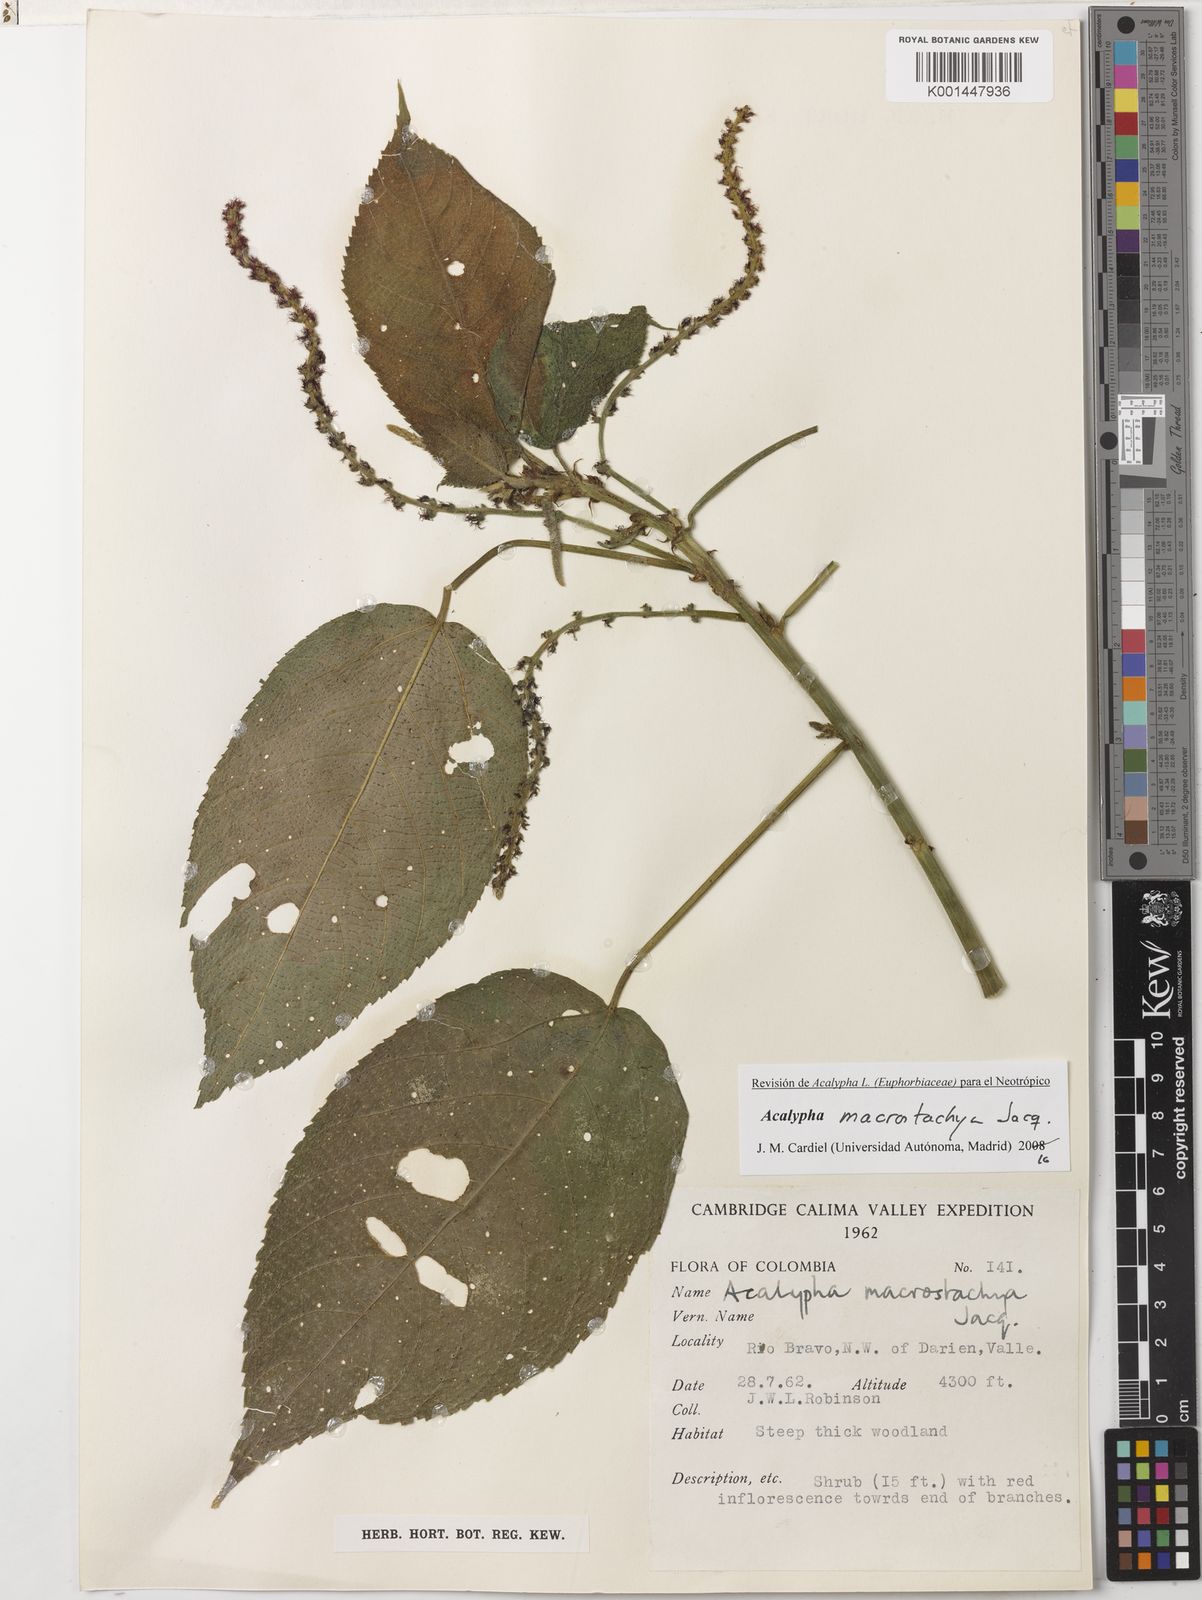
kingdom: Plantae
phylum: Tracheophyta
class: Magnoliopsida
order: Malpighiales
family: Euphorbiaceae
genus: Acalypha
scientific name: Acalypha macrostachya
